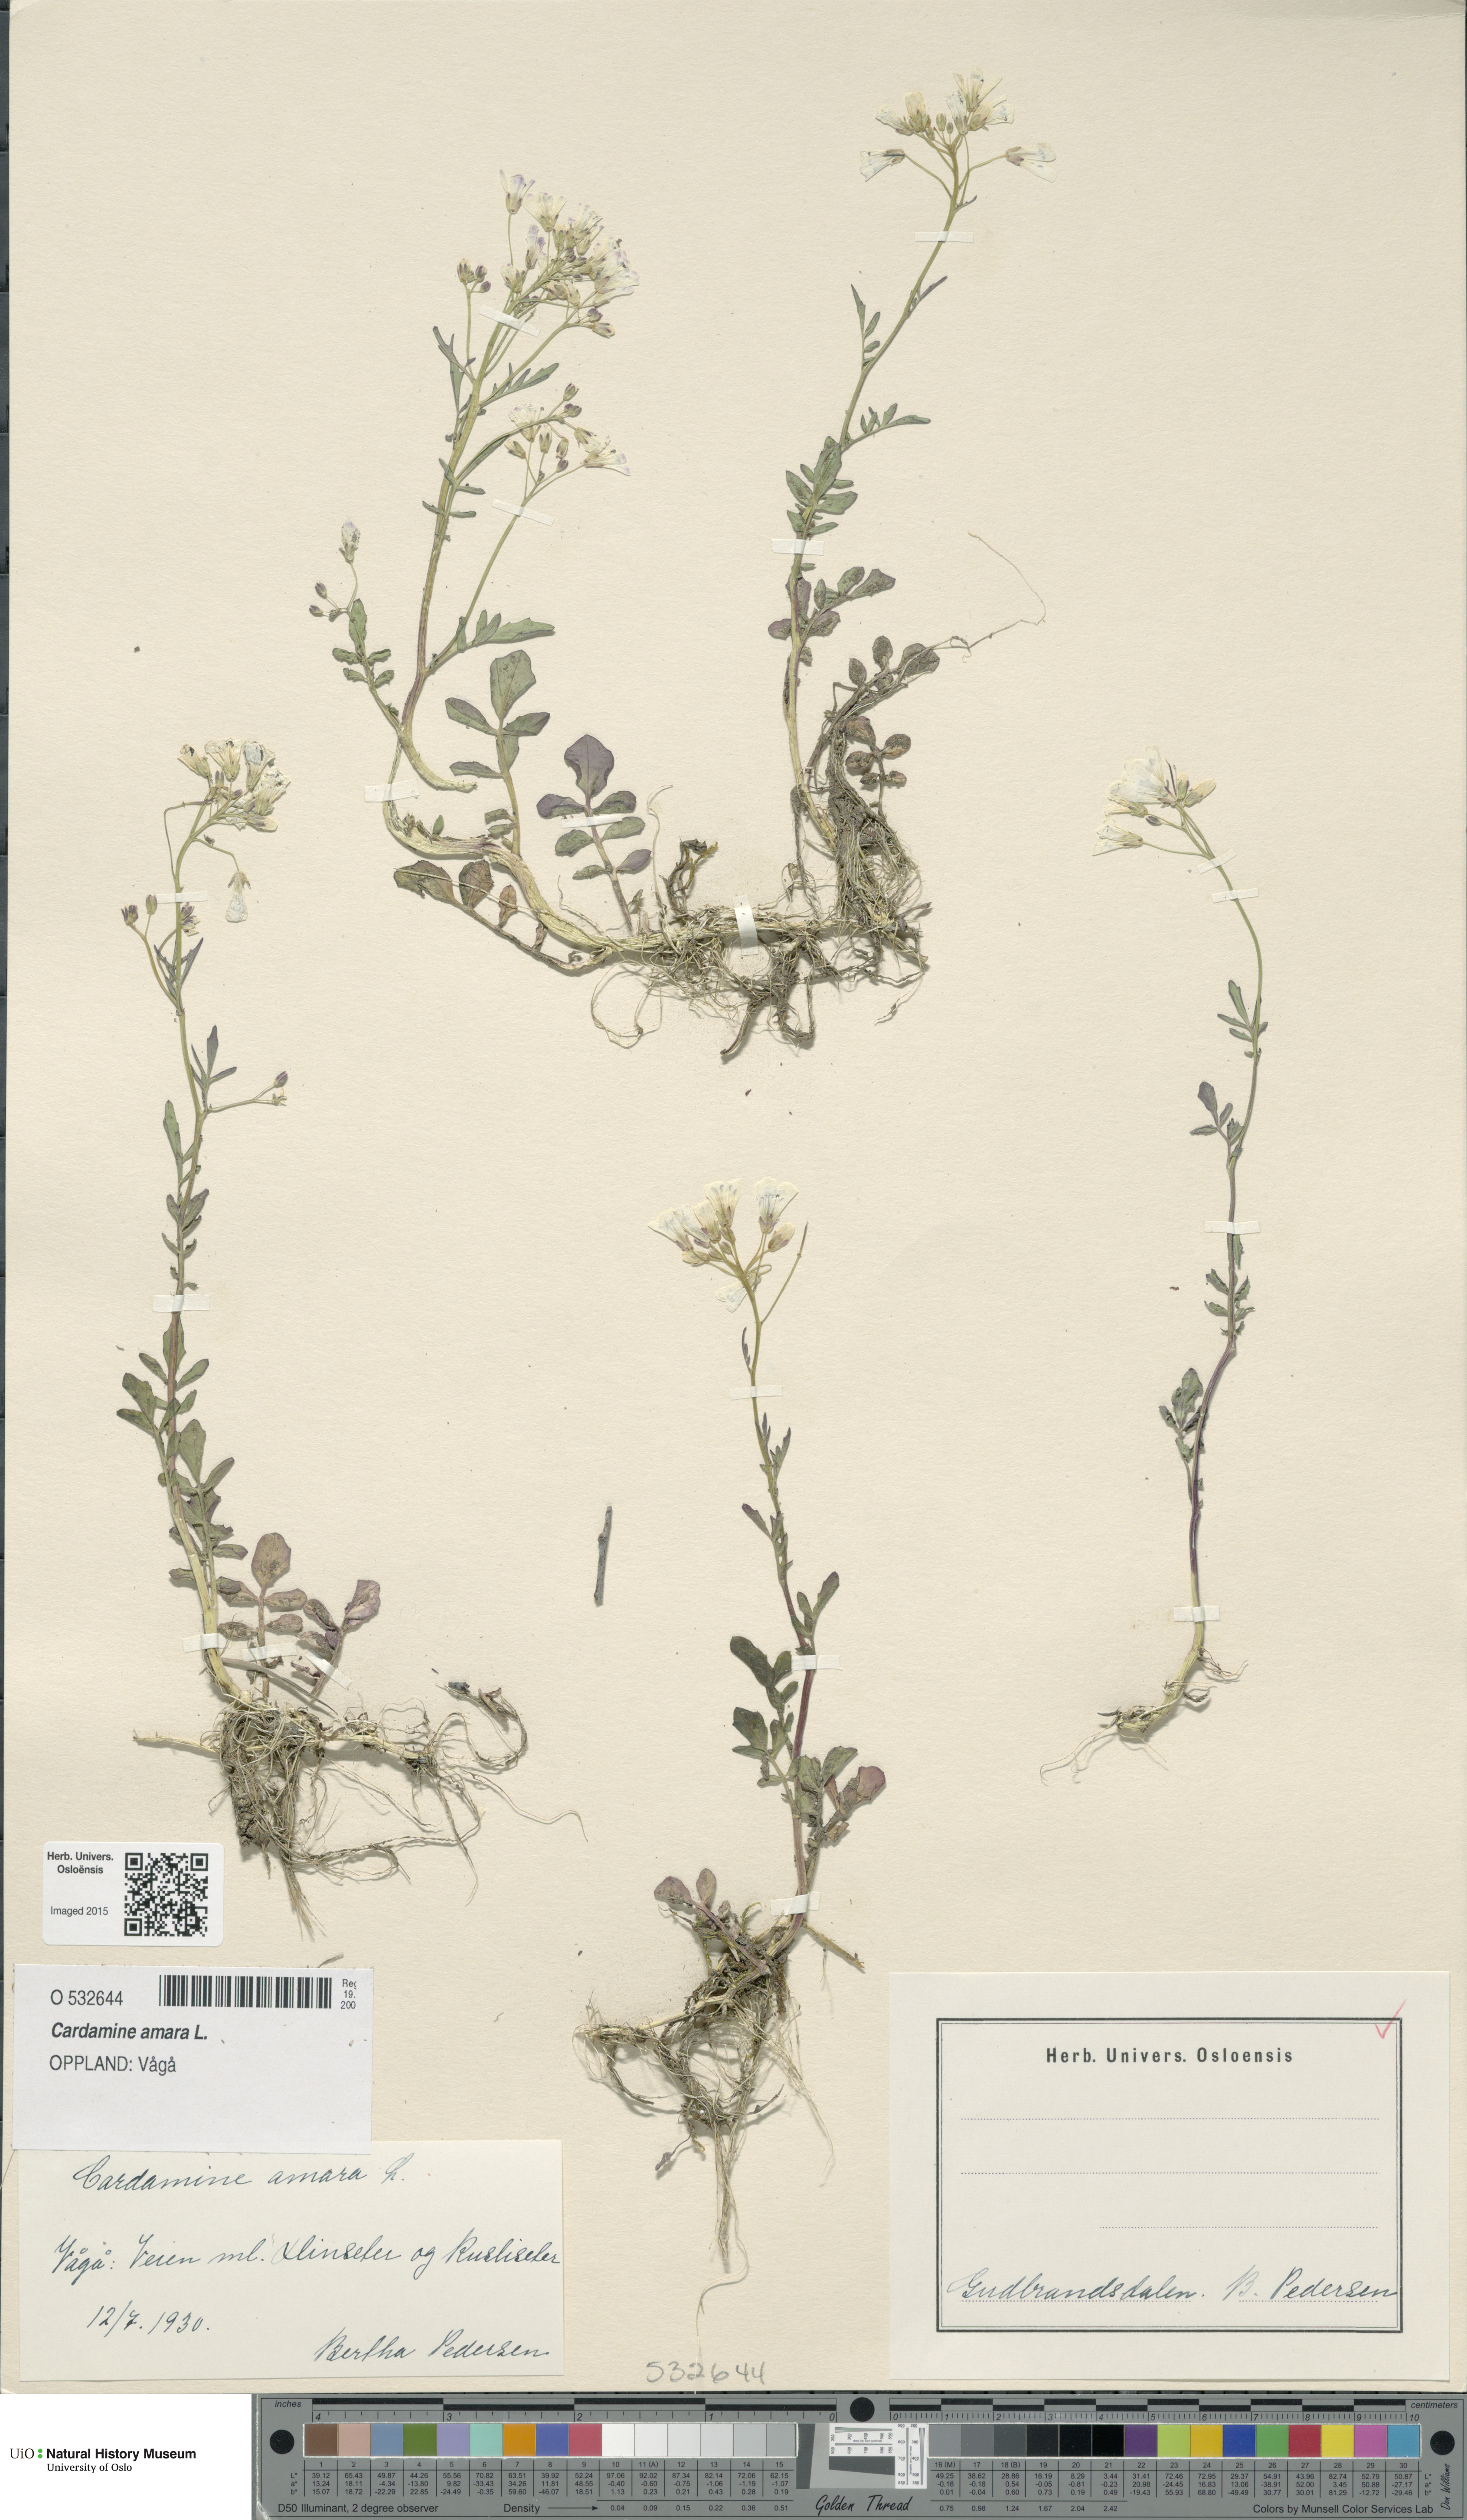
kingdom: Plantae
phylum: Tracheophyta
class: Magnoliopsida
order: Brassicales
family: Brassicaceae
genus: Cardamine
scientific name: Cardamine amara
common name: Large bitter-cress
